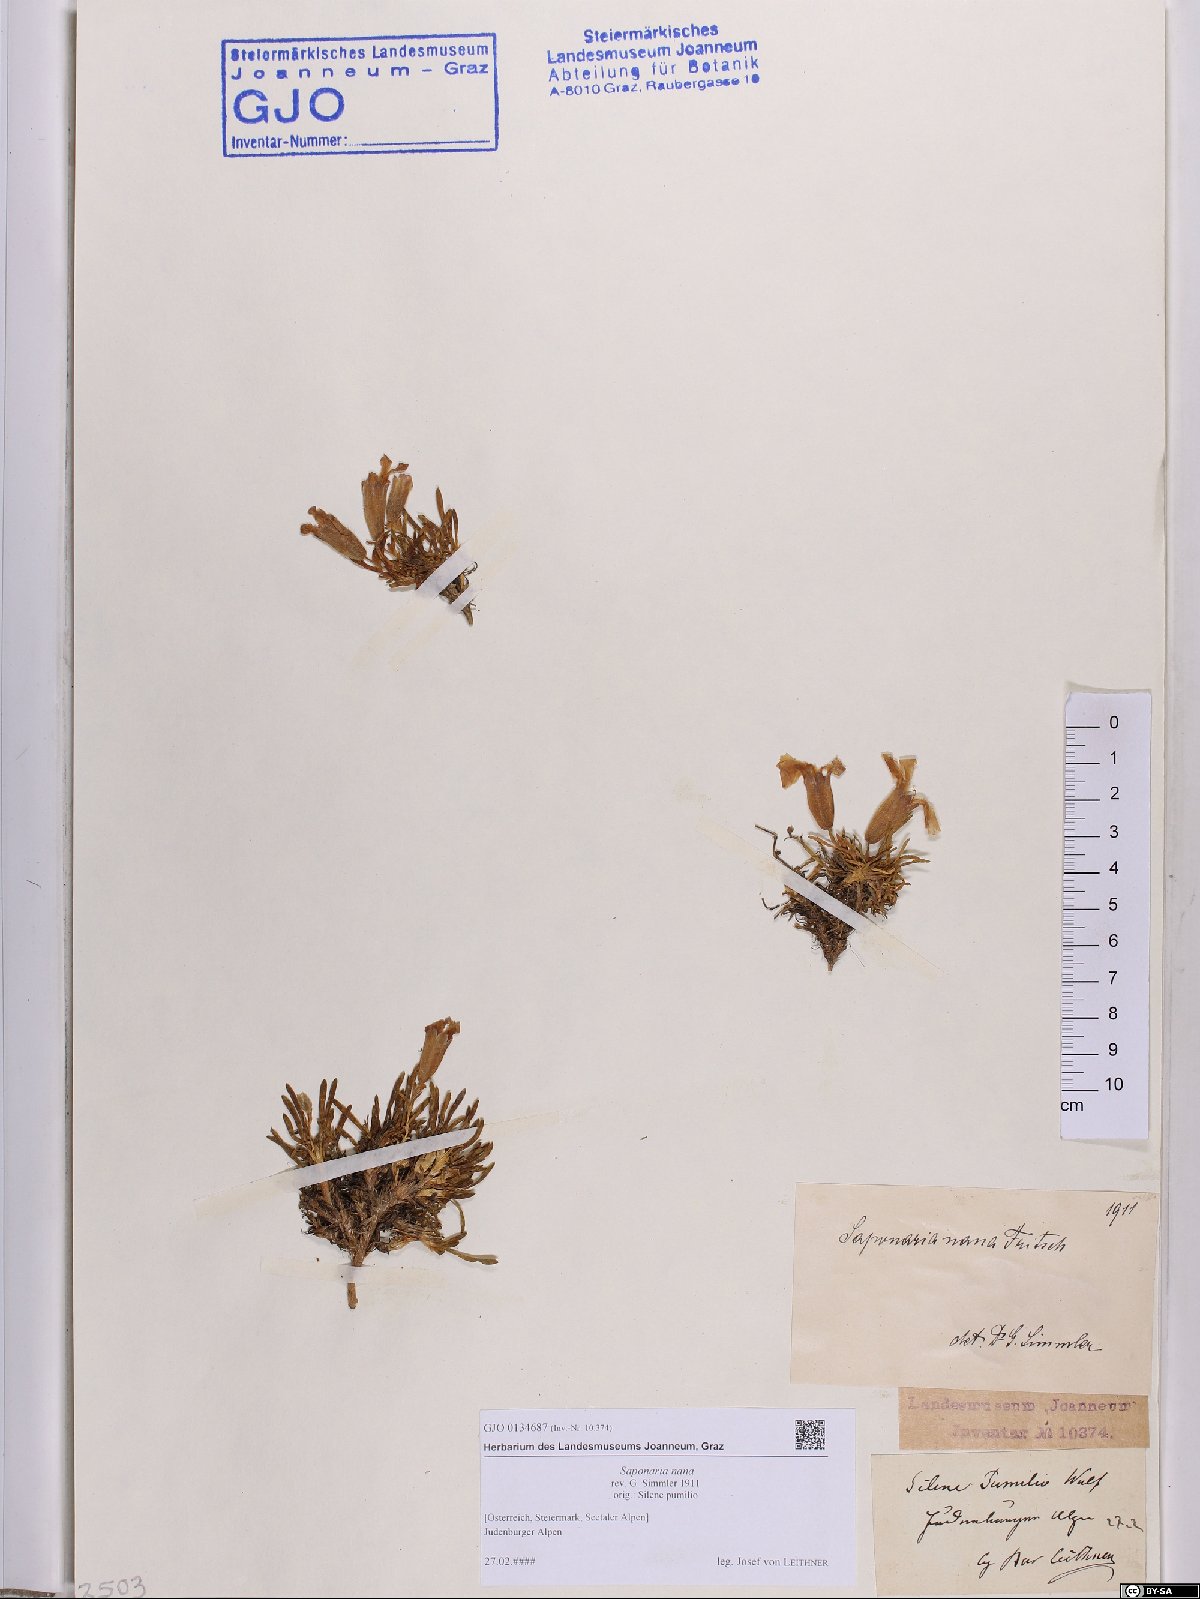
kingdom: Plantae
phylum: Tracheophyta
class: Magnoliopsida
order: Caryophyllales
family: Caryophyllaceae
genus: Saponaria
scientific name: Saponaria pumila
